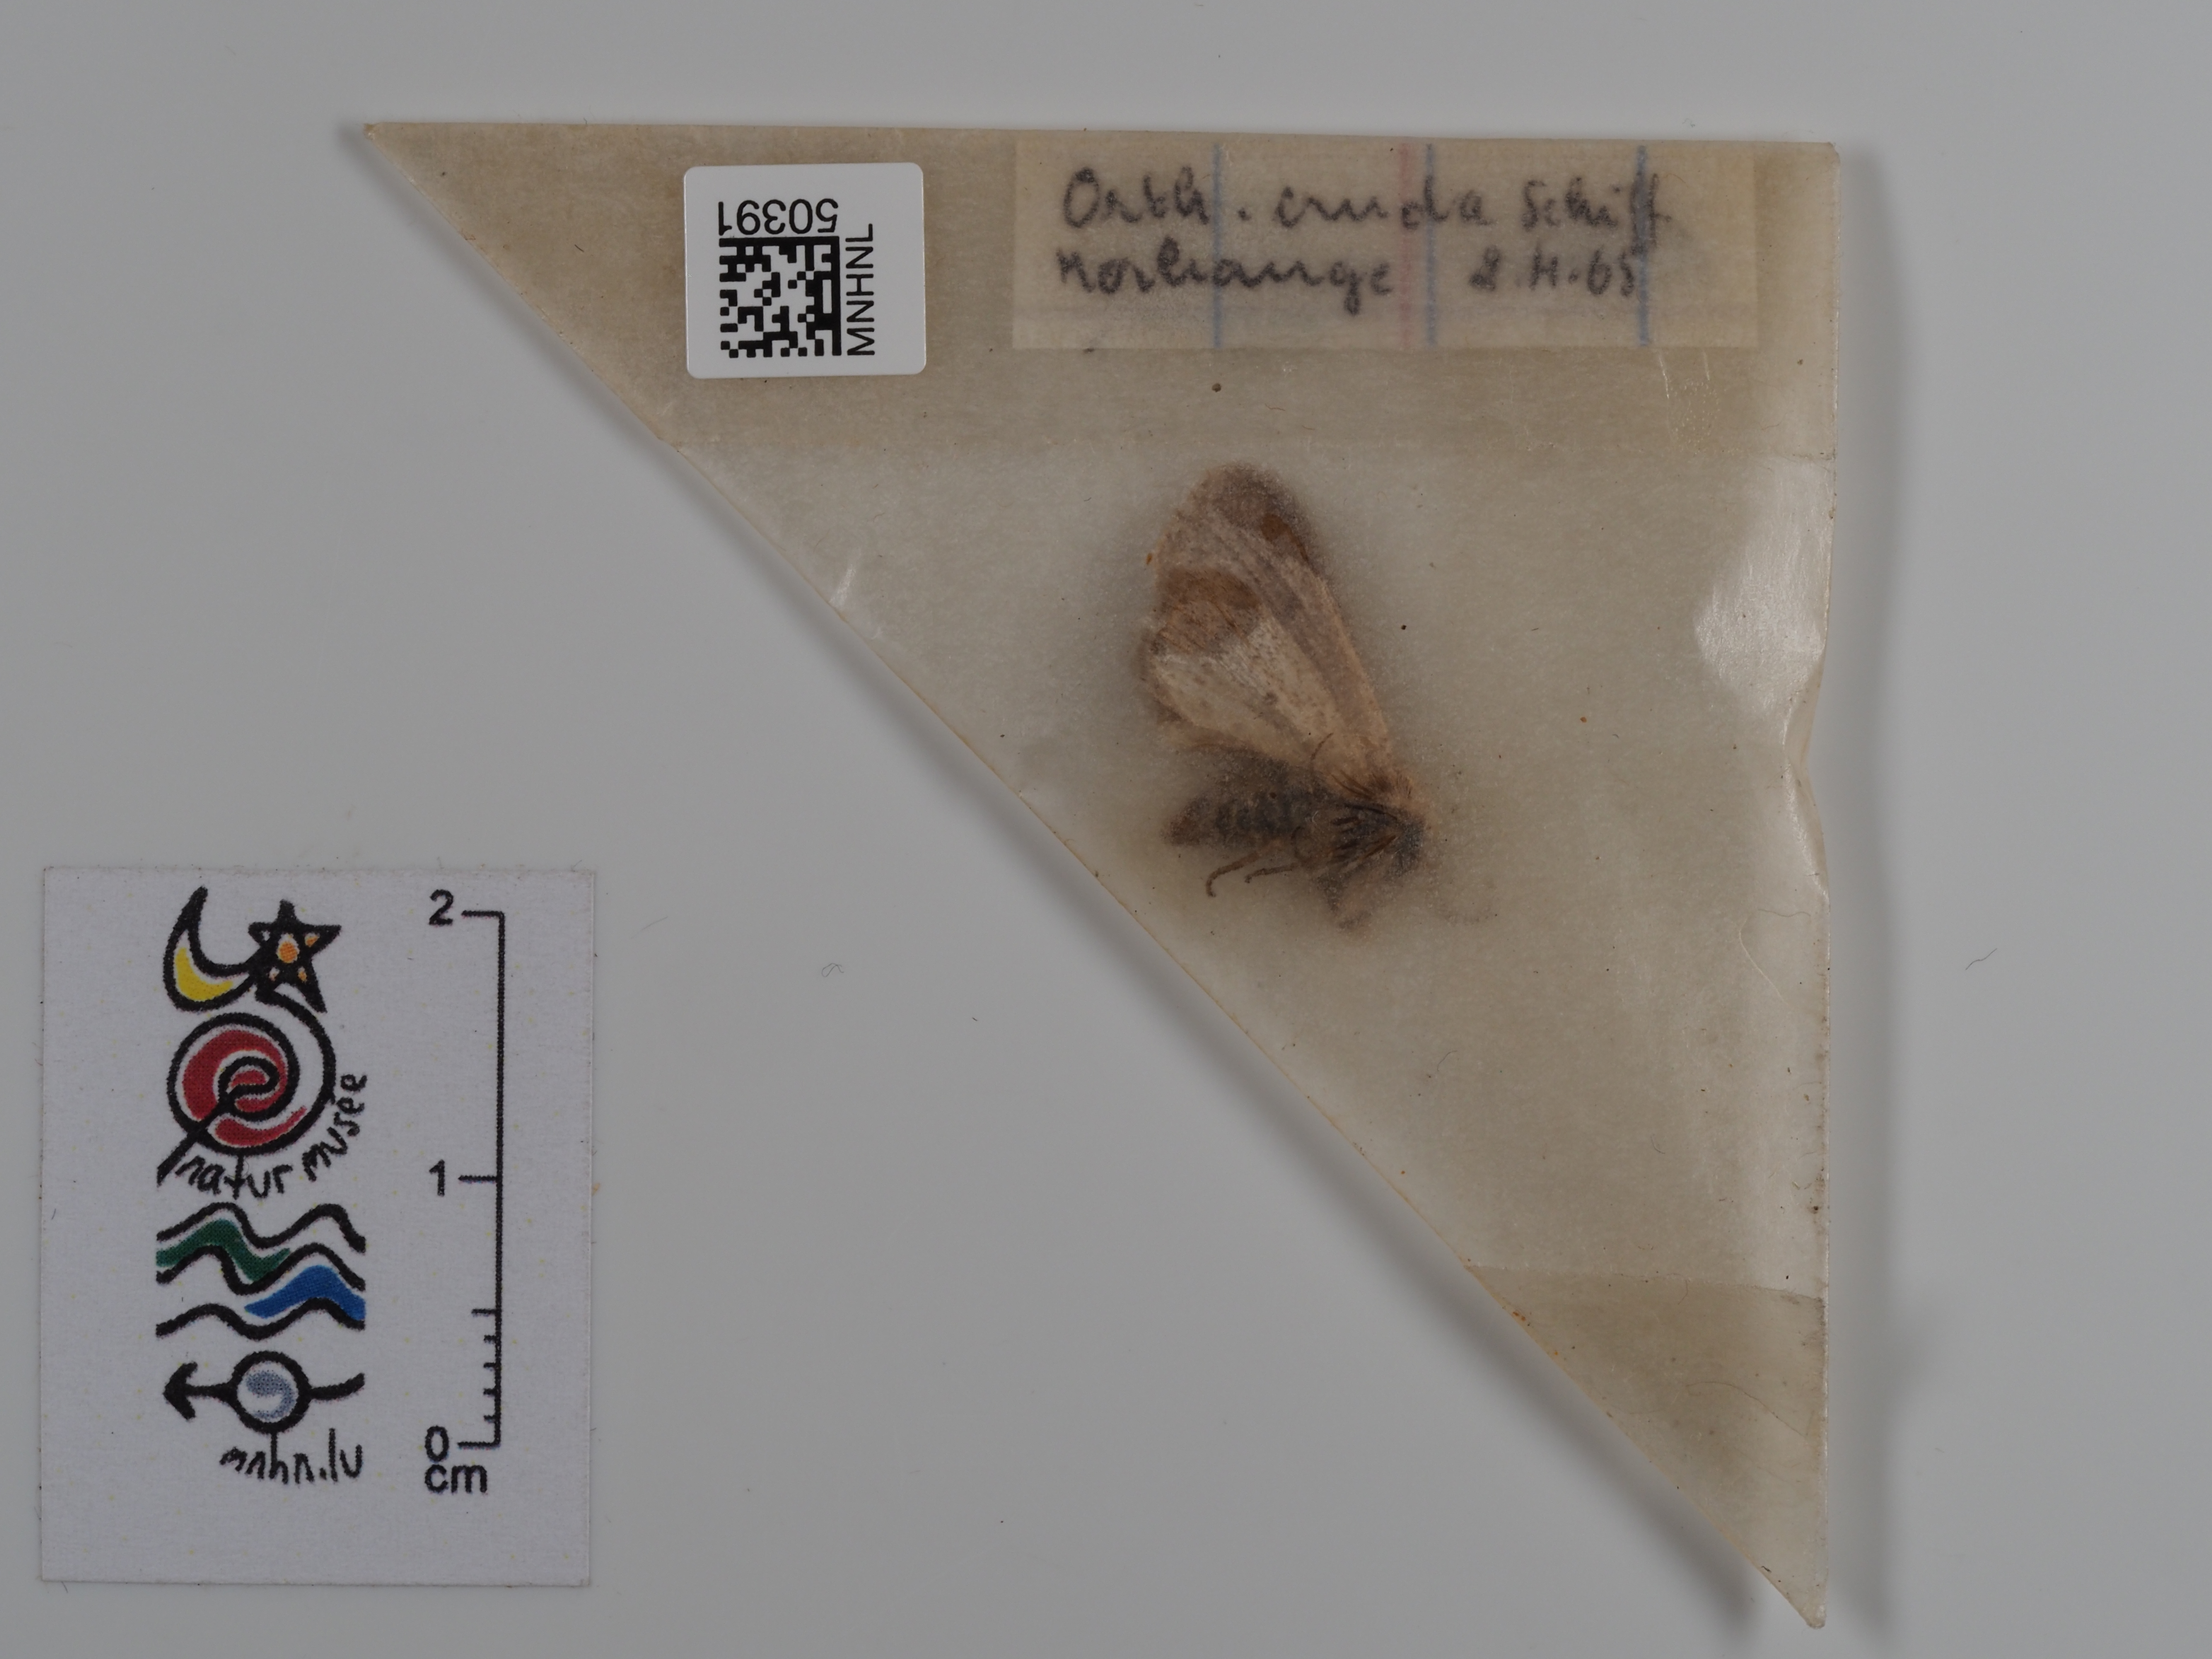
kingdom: Animalia
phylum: Arthropoda
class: Insecta
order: Lepidoptera
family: Noctuidae
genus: Orthosia
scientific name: Orthosia cruda
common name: Small quaker
